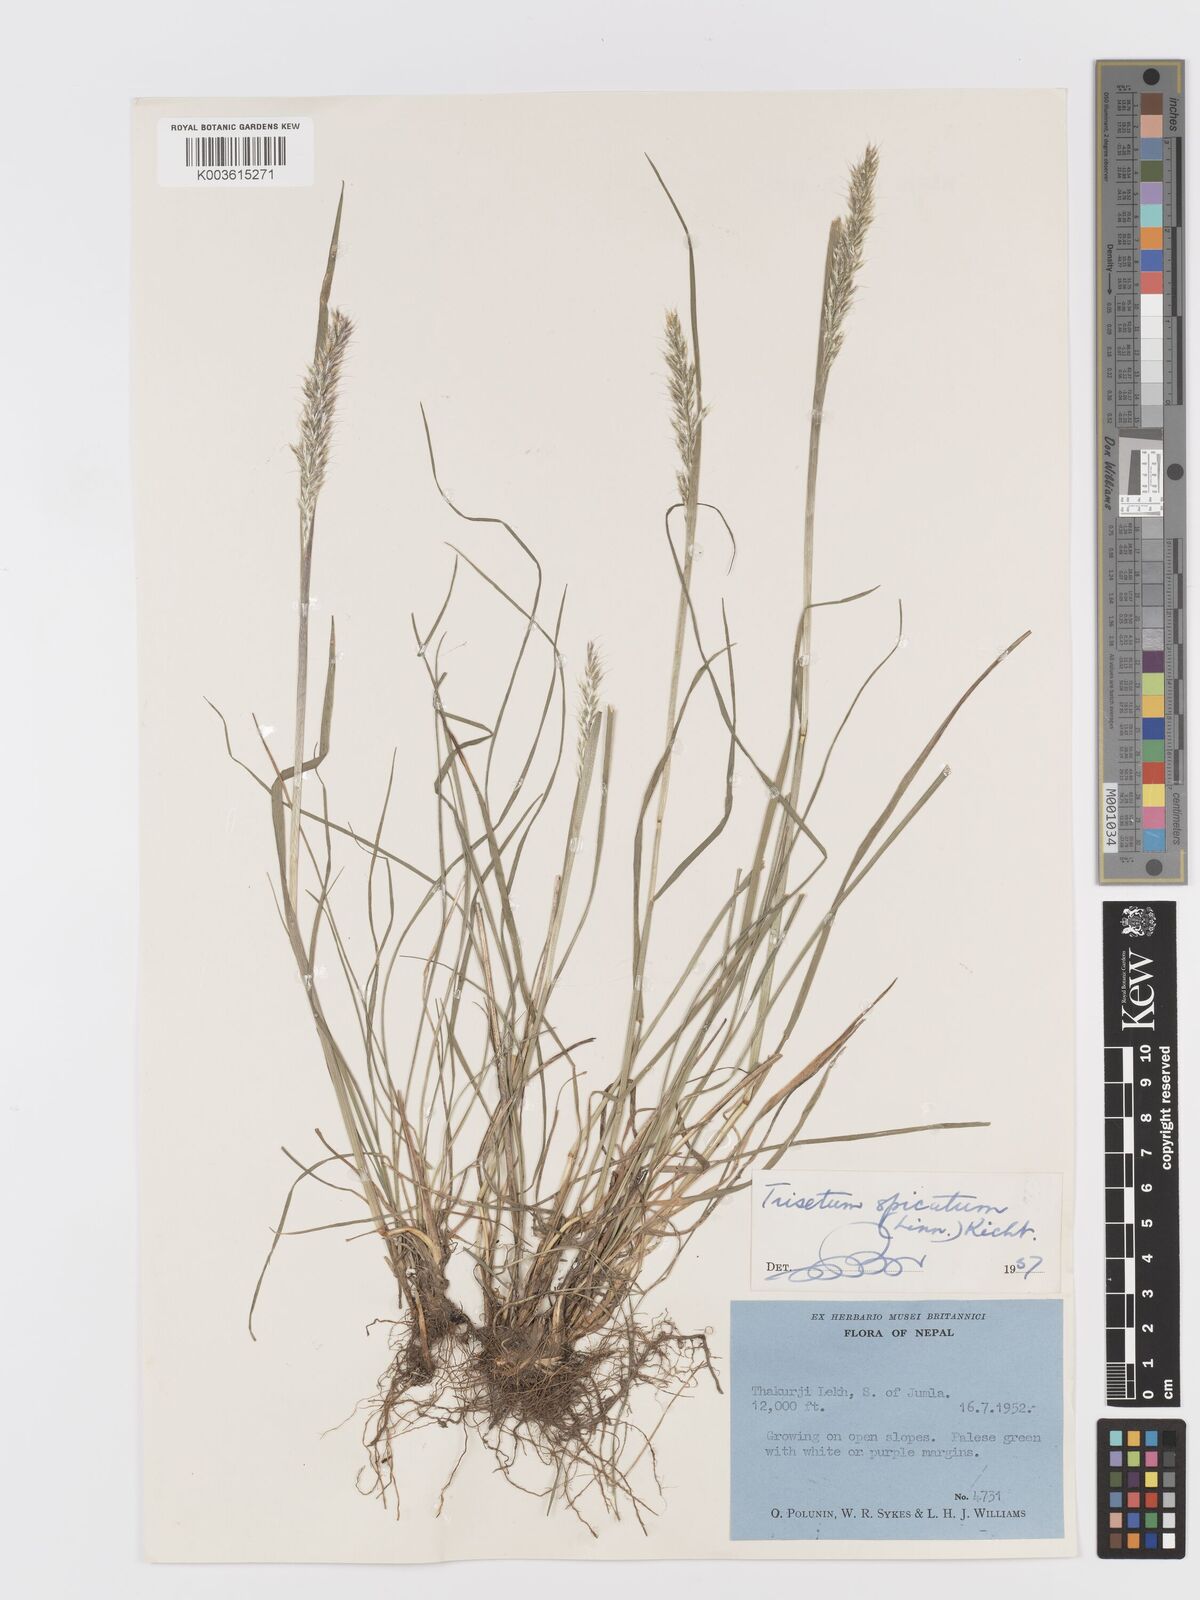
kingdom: Plantae
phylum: Tracheophyta
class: Liliopsida
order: Poales
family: Poaceae
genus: Koeleria
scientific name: Koeleria spicata
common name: Mountain trisetum
